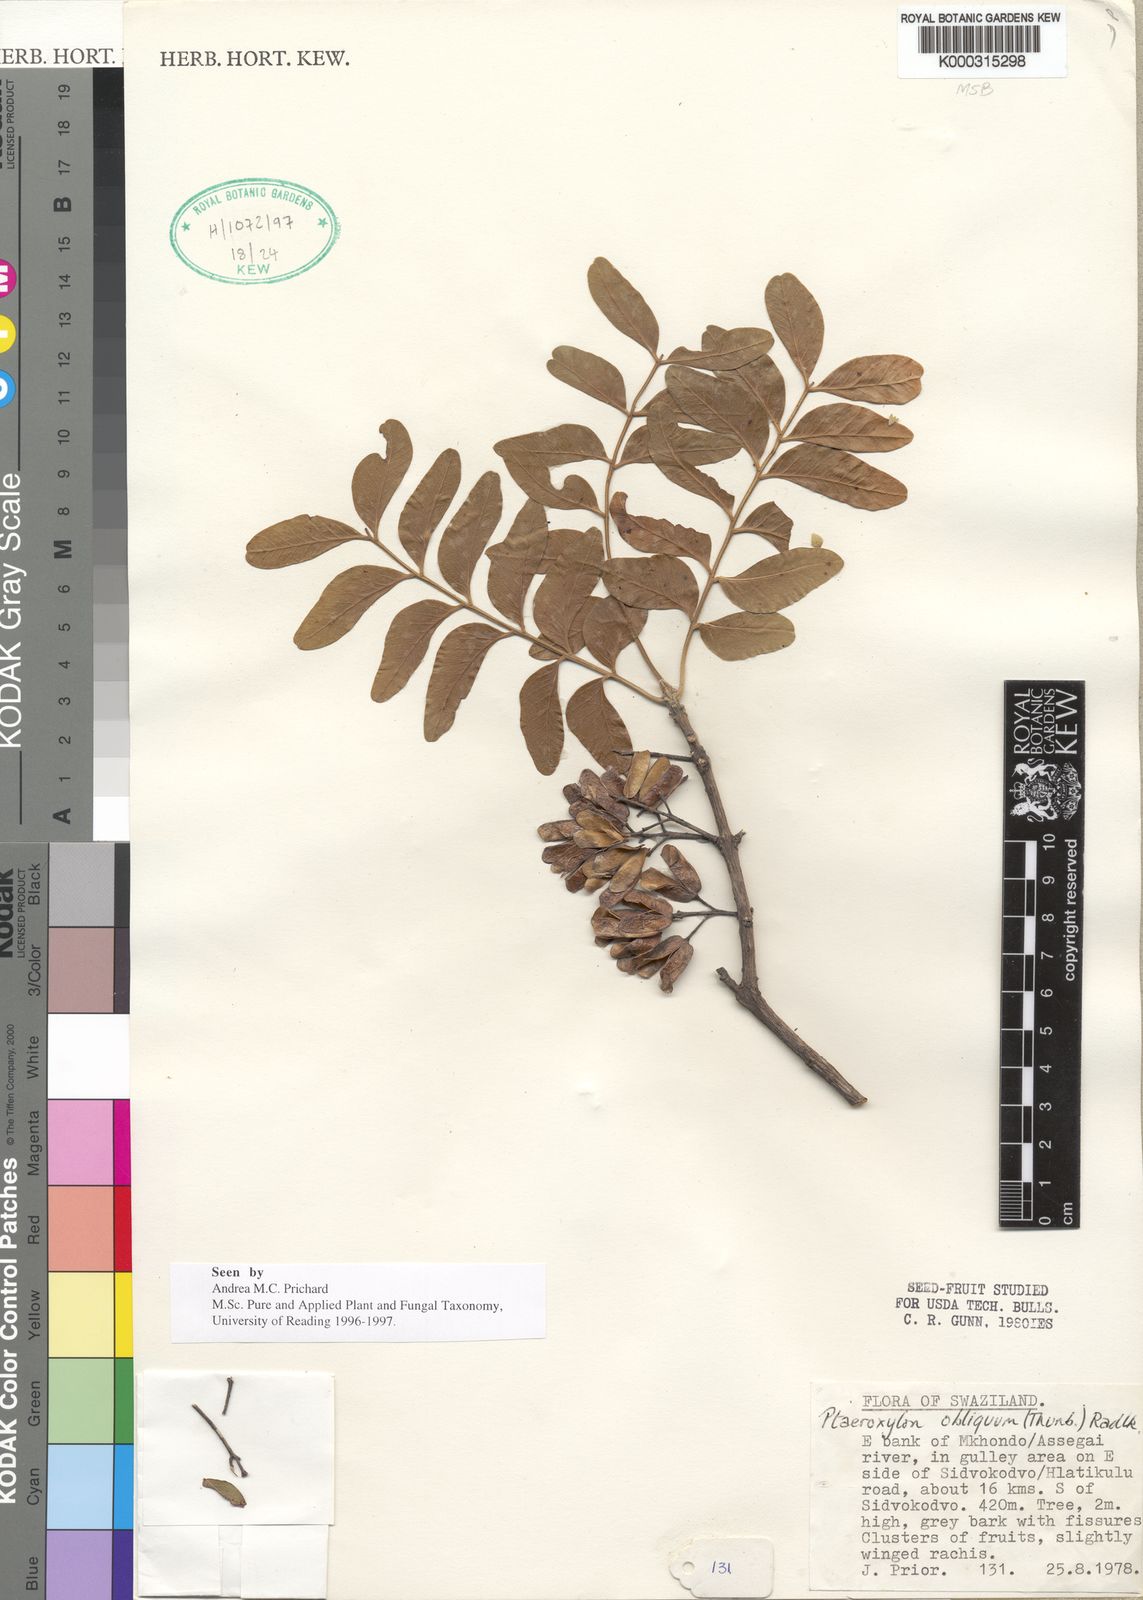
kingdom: Plantae
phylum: Tracheophyta
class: Magnoliopsida
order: Sapindales
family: Rutaceae
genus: Ptaeroxylon
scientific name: Ptaeroxylon obliquum
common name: Sneezewood
